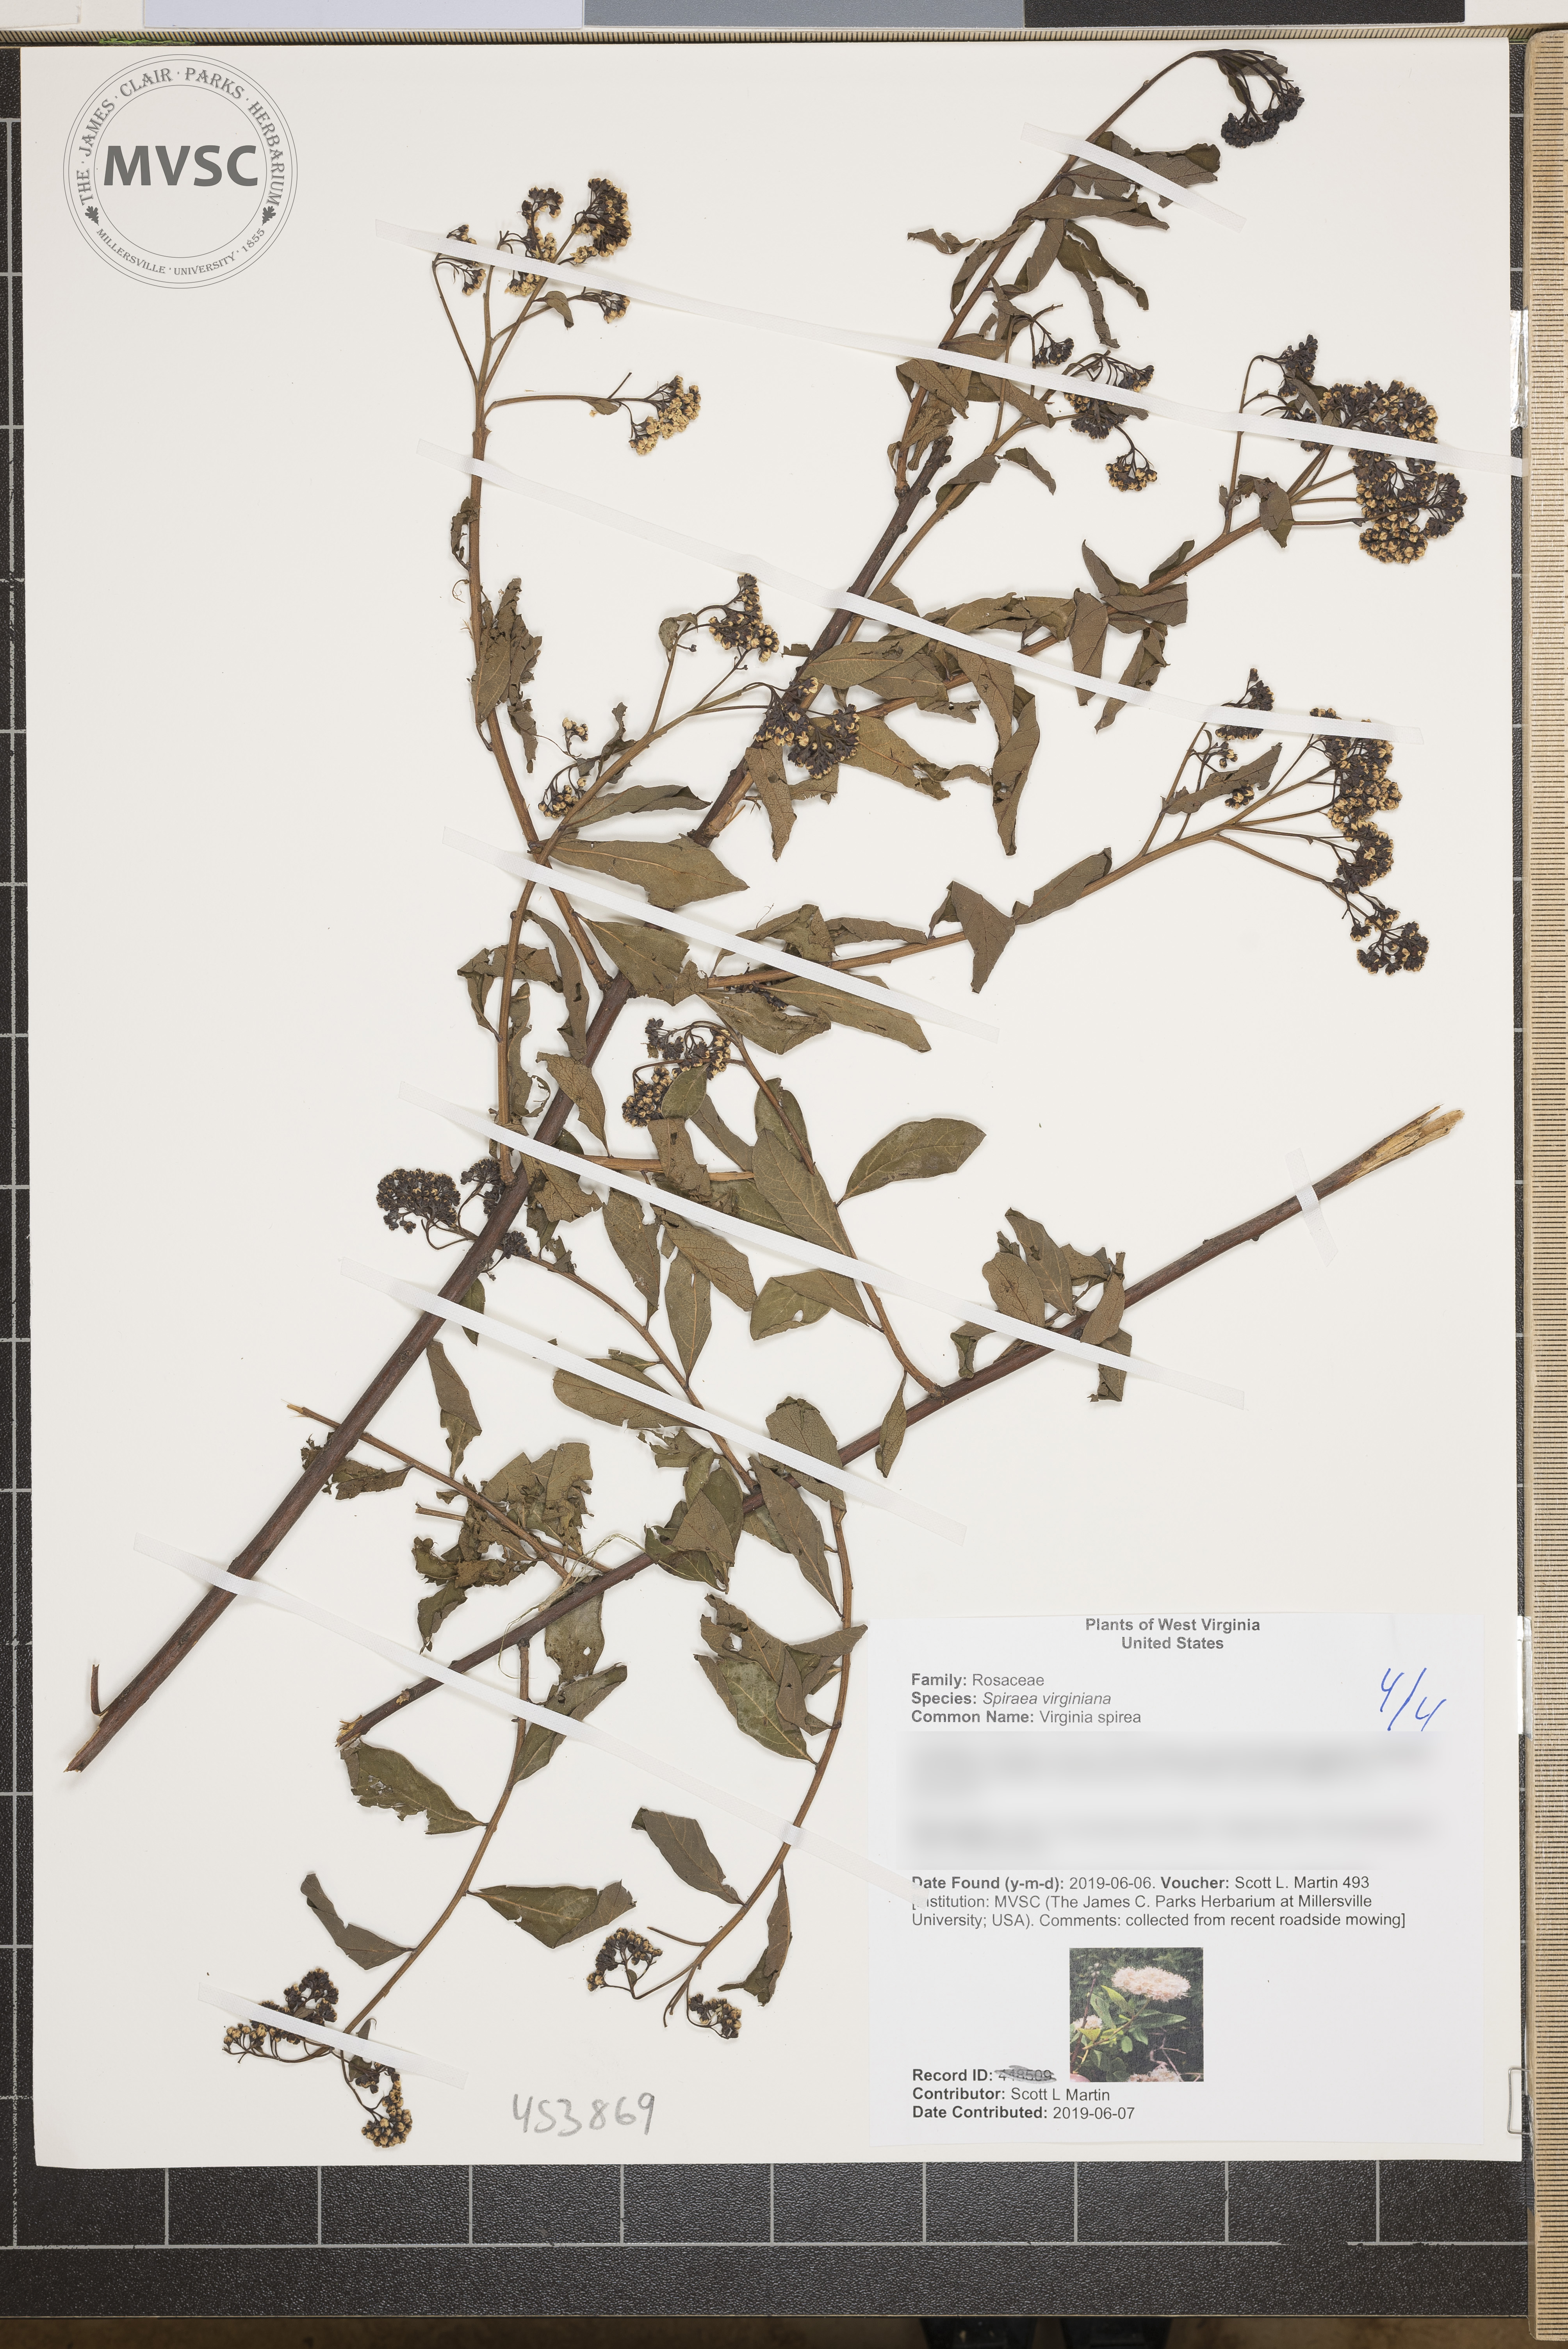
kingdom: Plantae
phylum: Tracheophyta
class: Magnoliopsida
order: Rosales
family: Rosaceae
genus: Spiraea
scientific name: Spiraea virginiana
